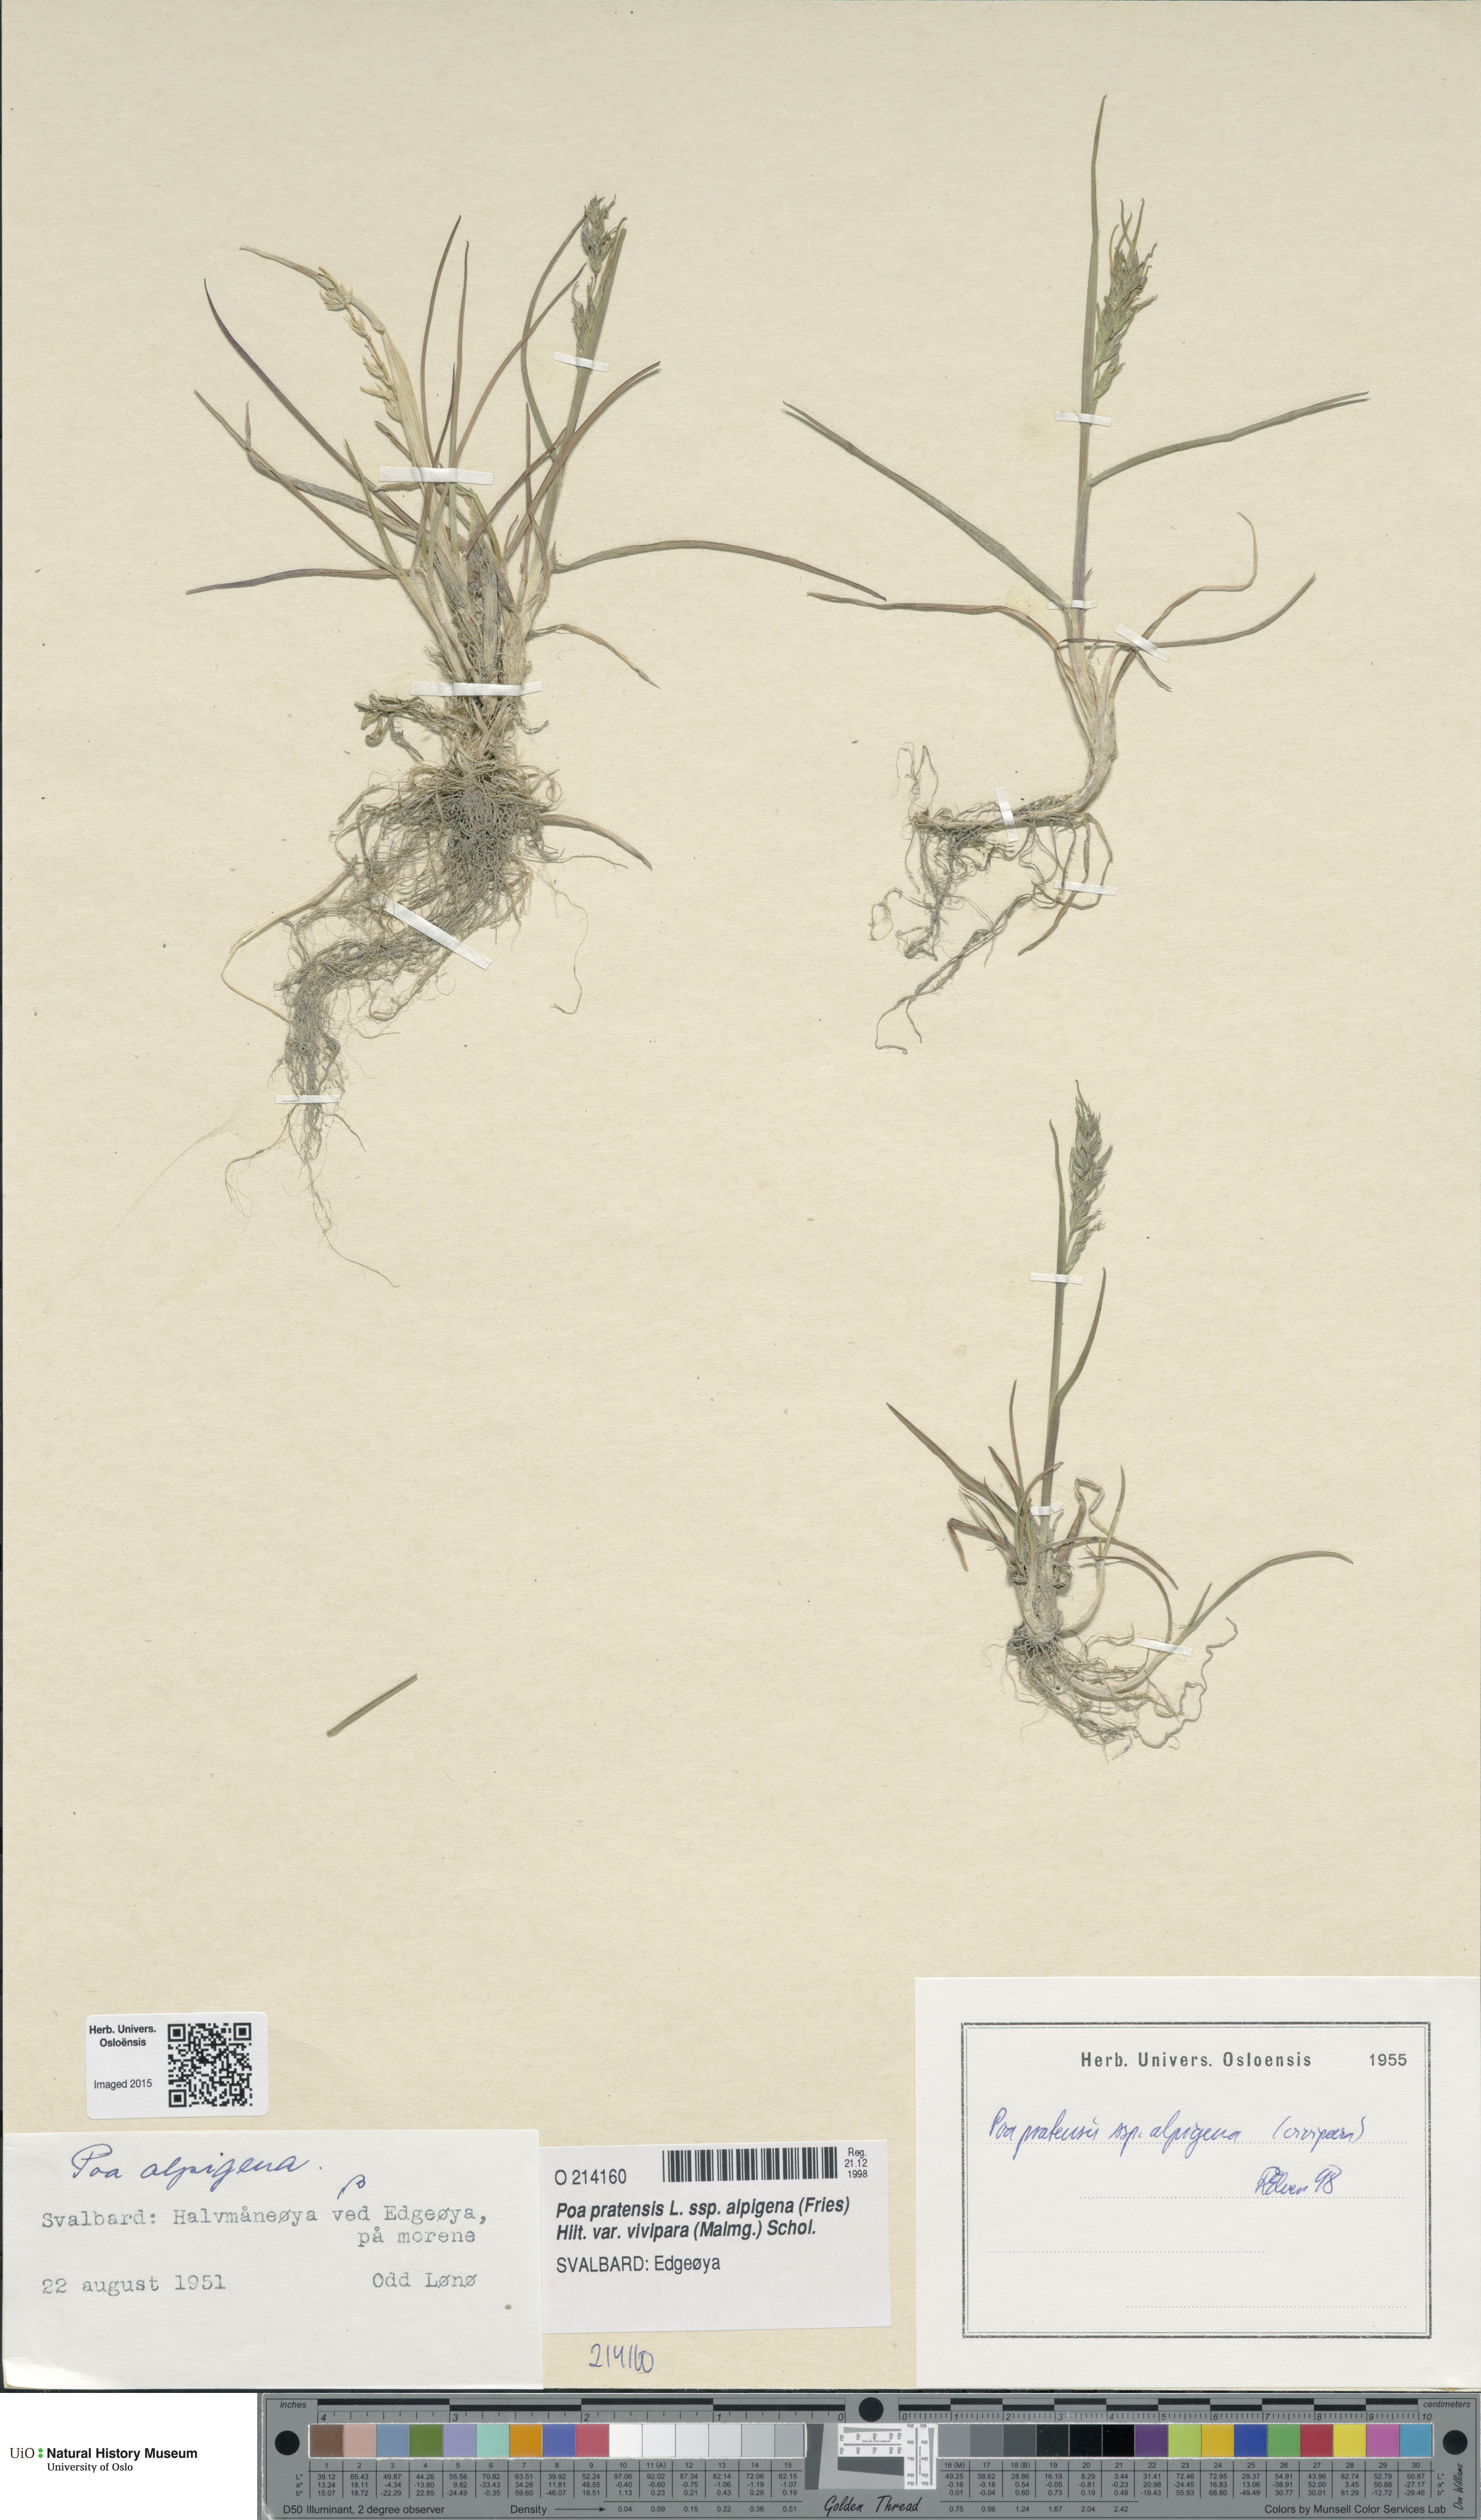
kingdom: Plantae
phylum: Tracheophyta
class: Liliopsida
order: Poales
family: Poaceae
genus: Poa
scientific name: Poa arctica
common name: Arctic bluegrass
